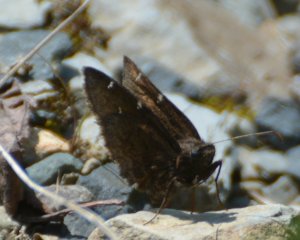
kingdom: Animalia
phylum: Arthropoda
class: Insecta
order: Lepidoptera
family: Hesperiidae
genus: Autochton
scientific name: Autochton
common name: Northern Cloudywing
